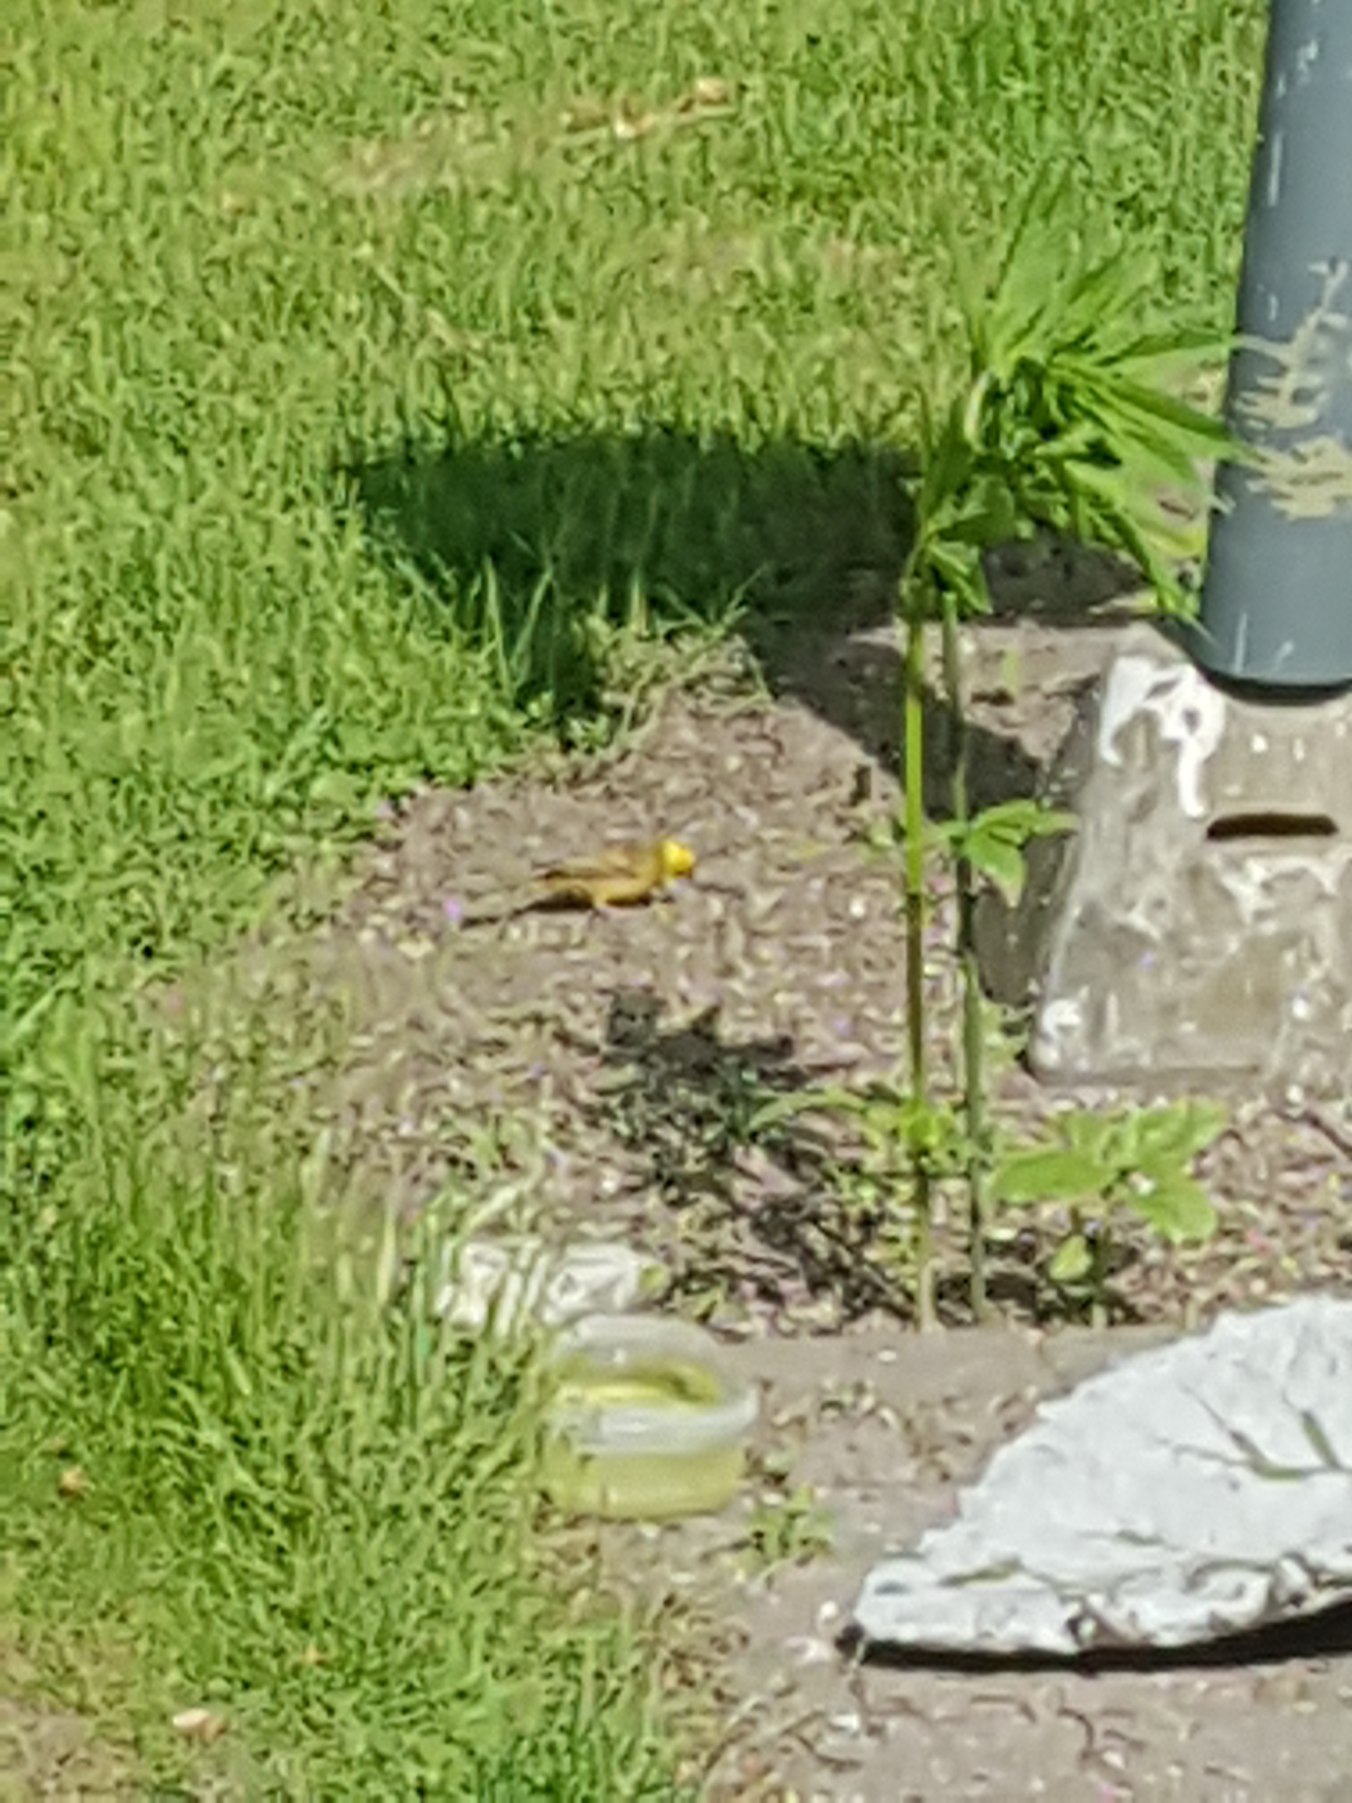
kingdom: Animalia
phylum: Chordata
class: Aves
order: Passeriformes
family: Emberizidae
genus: Emberiza
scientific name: Emberiza citrinella
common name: Gulspurv
